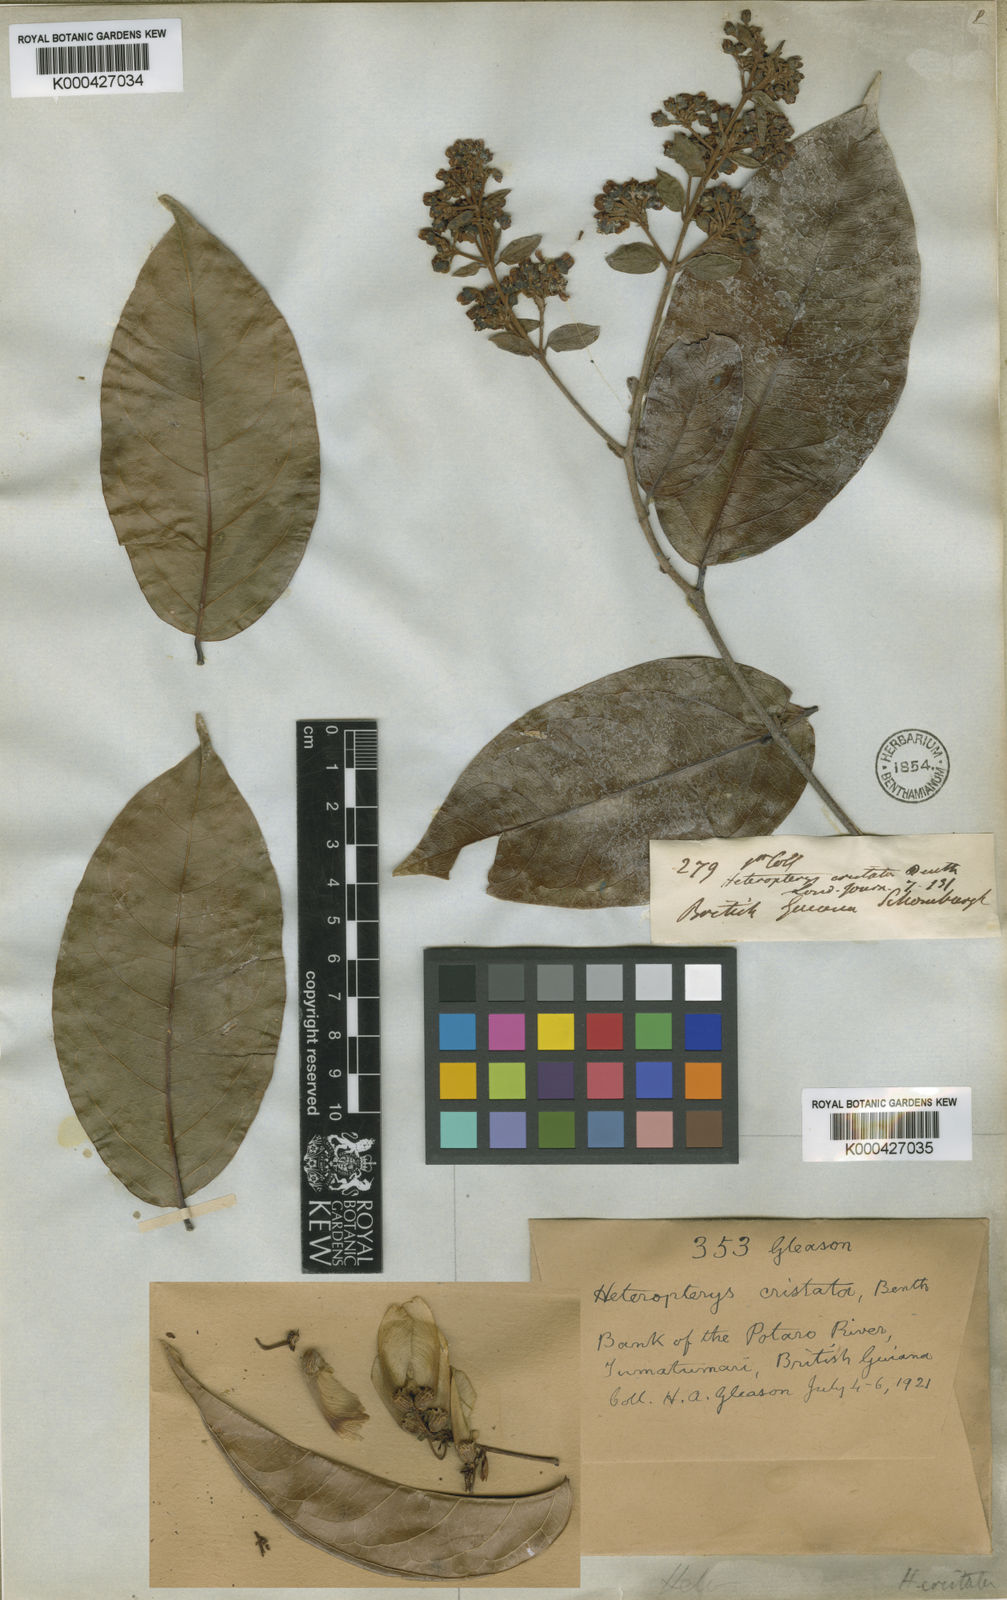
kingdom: Plantae
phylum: Tracheophyta
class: Magnoliopsida
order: Malpighiales
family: Malpighiaceae
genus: Heteropterys
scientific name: Heteropterys cristata
